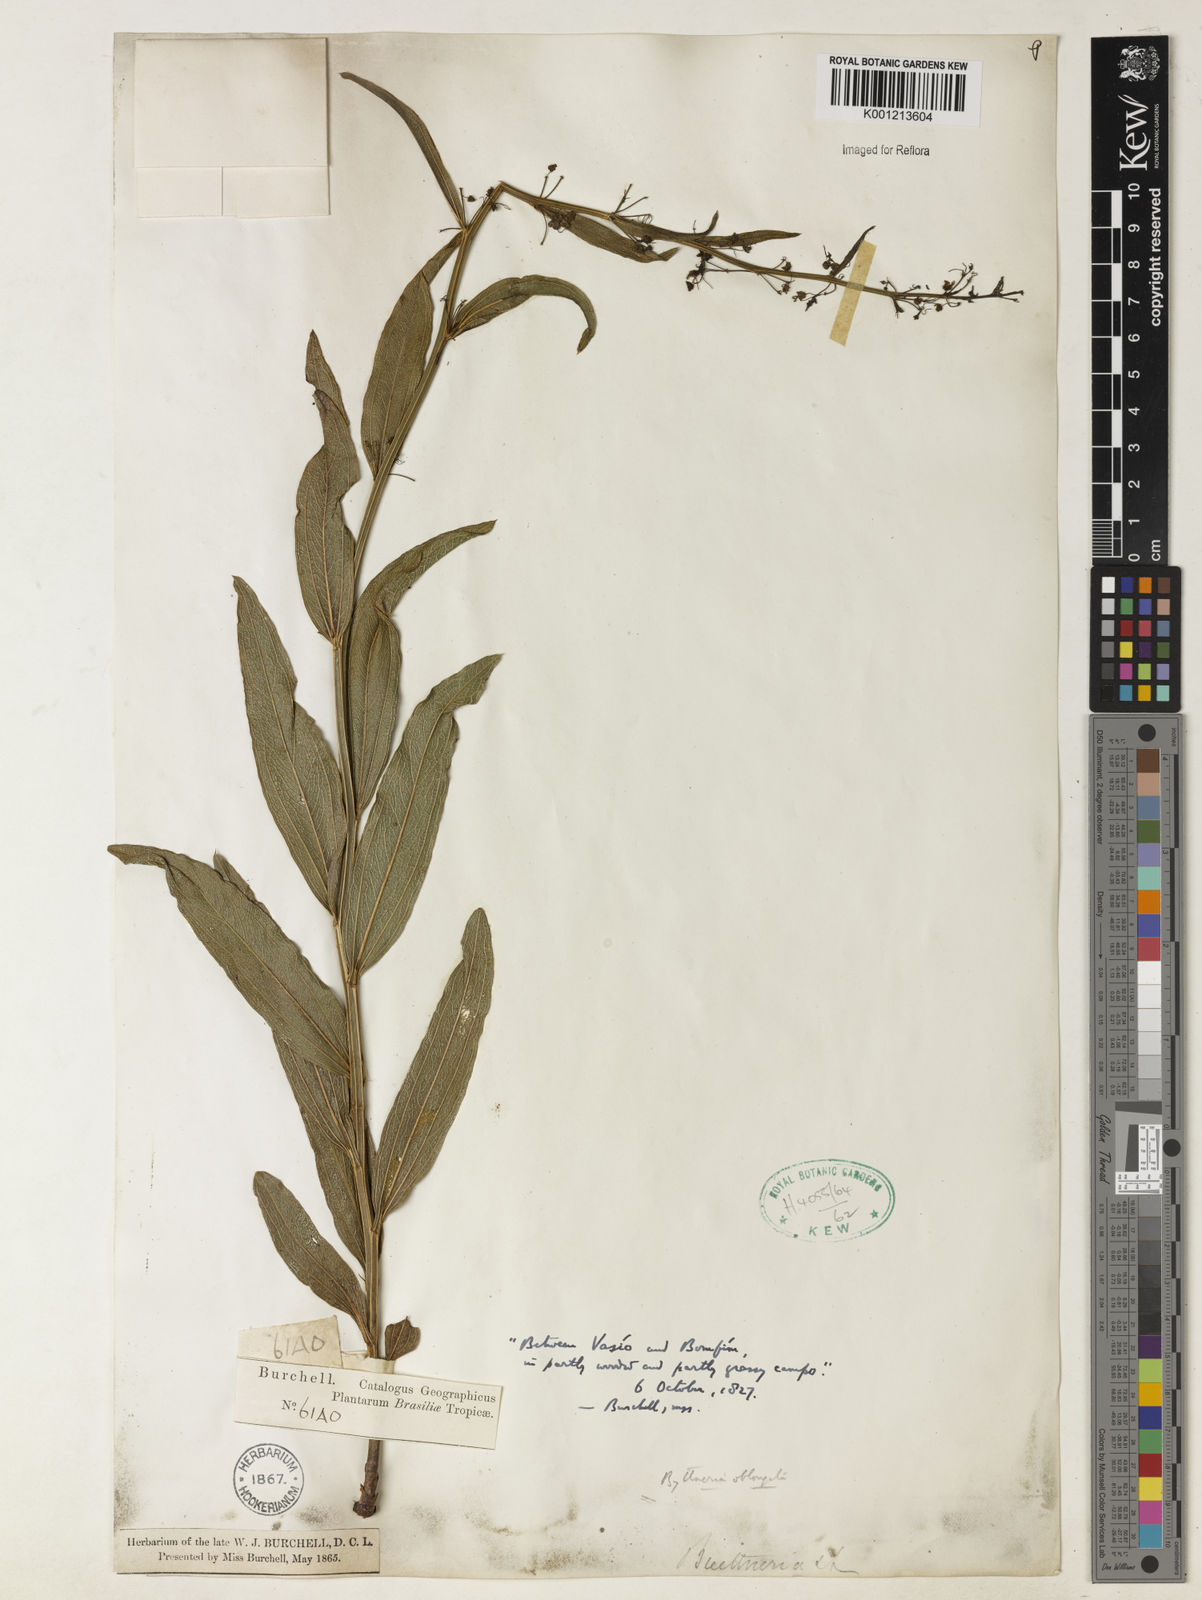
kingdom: Plantae
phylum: Tracheophyta
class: Magnoliopsida
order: Malvales
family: Malvaceae
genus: Byttneria
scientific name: Byttneria oblongata
